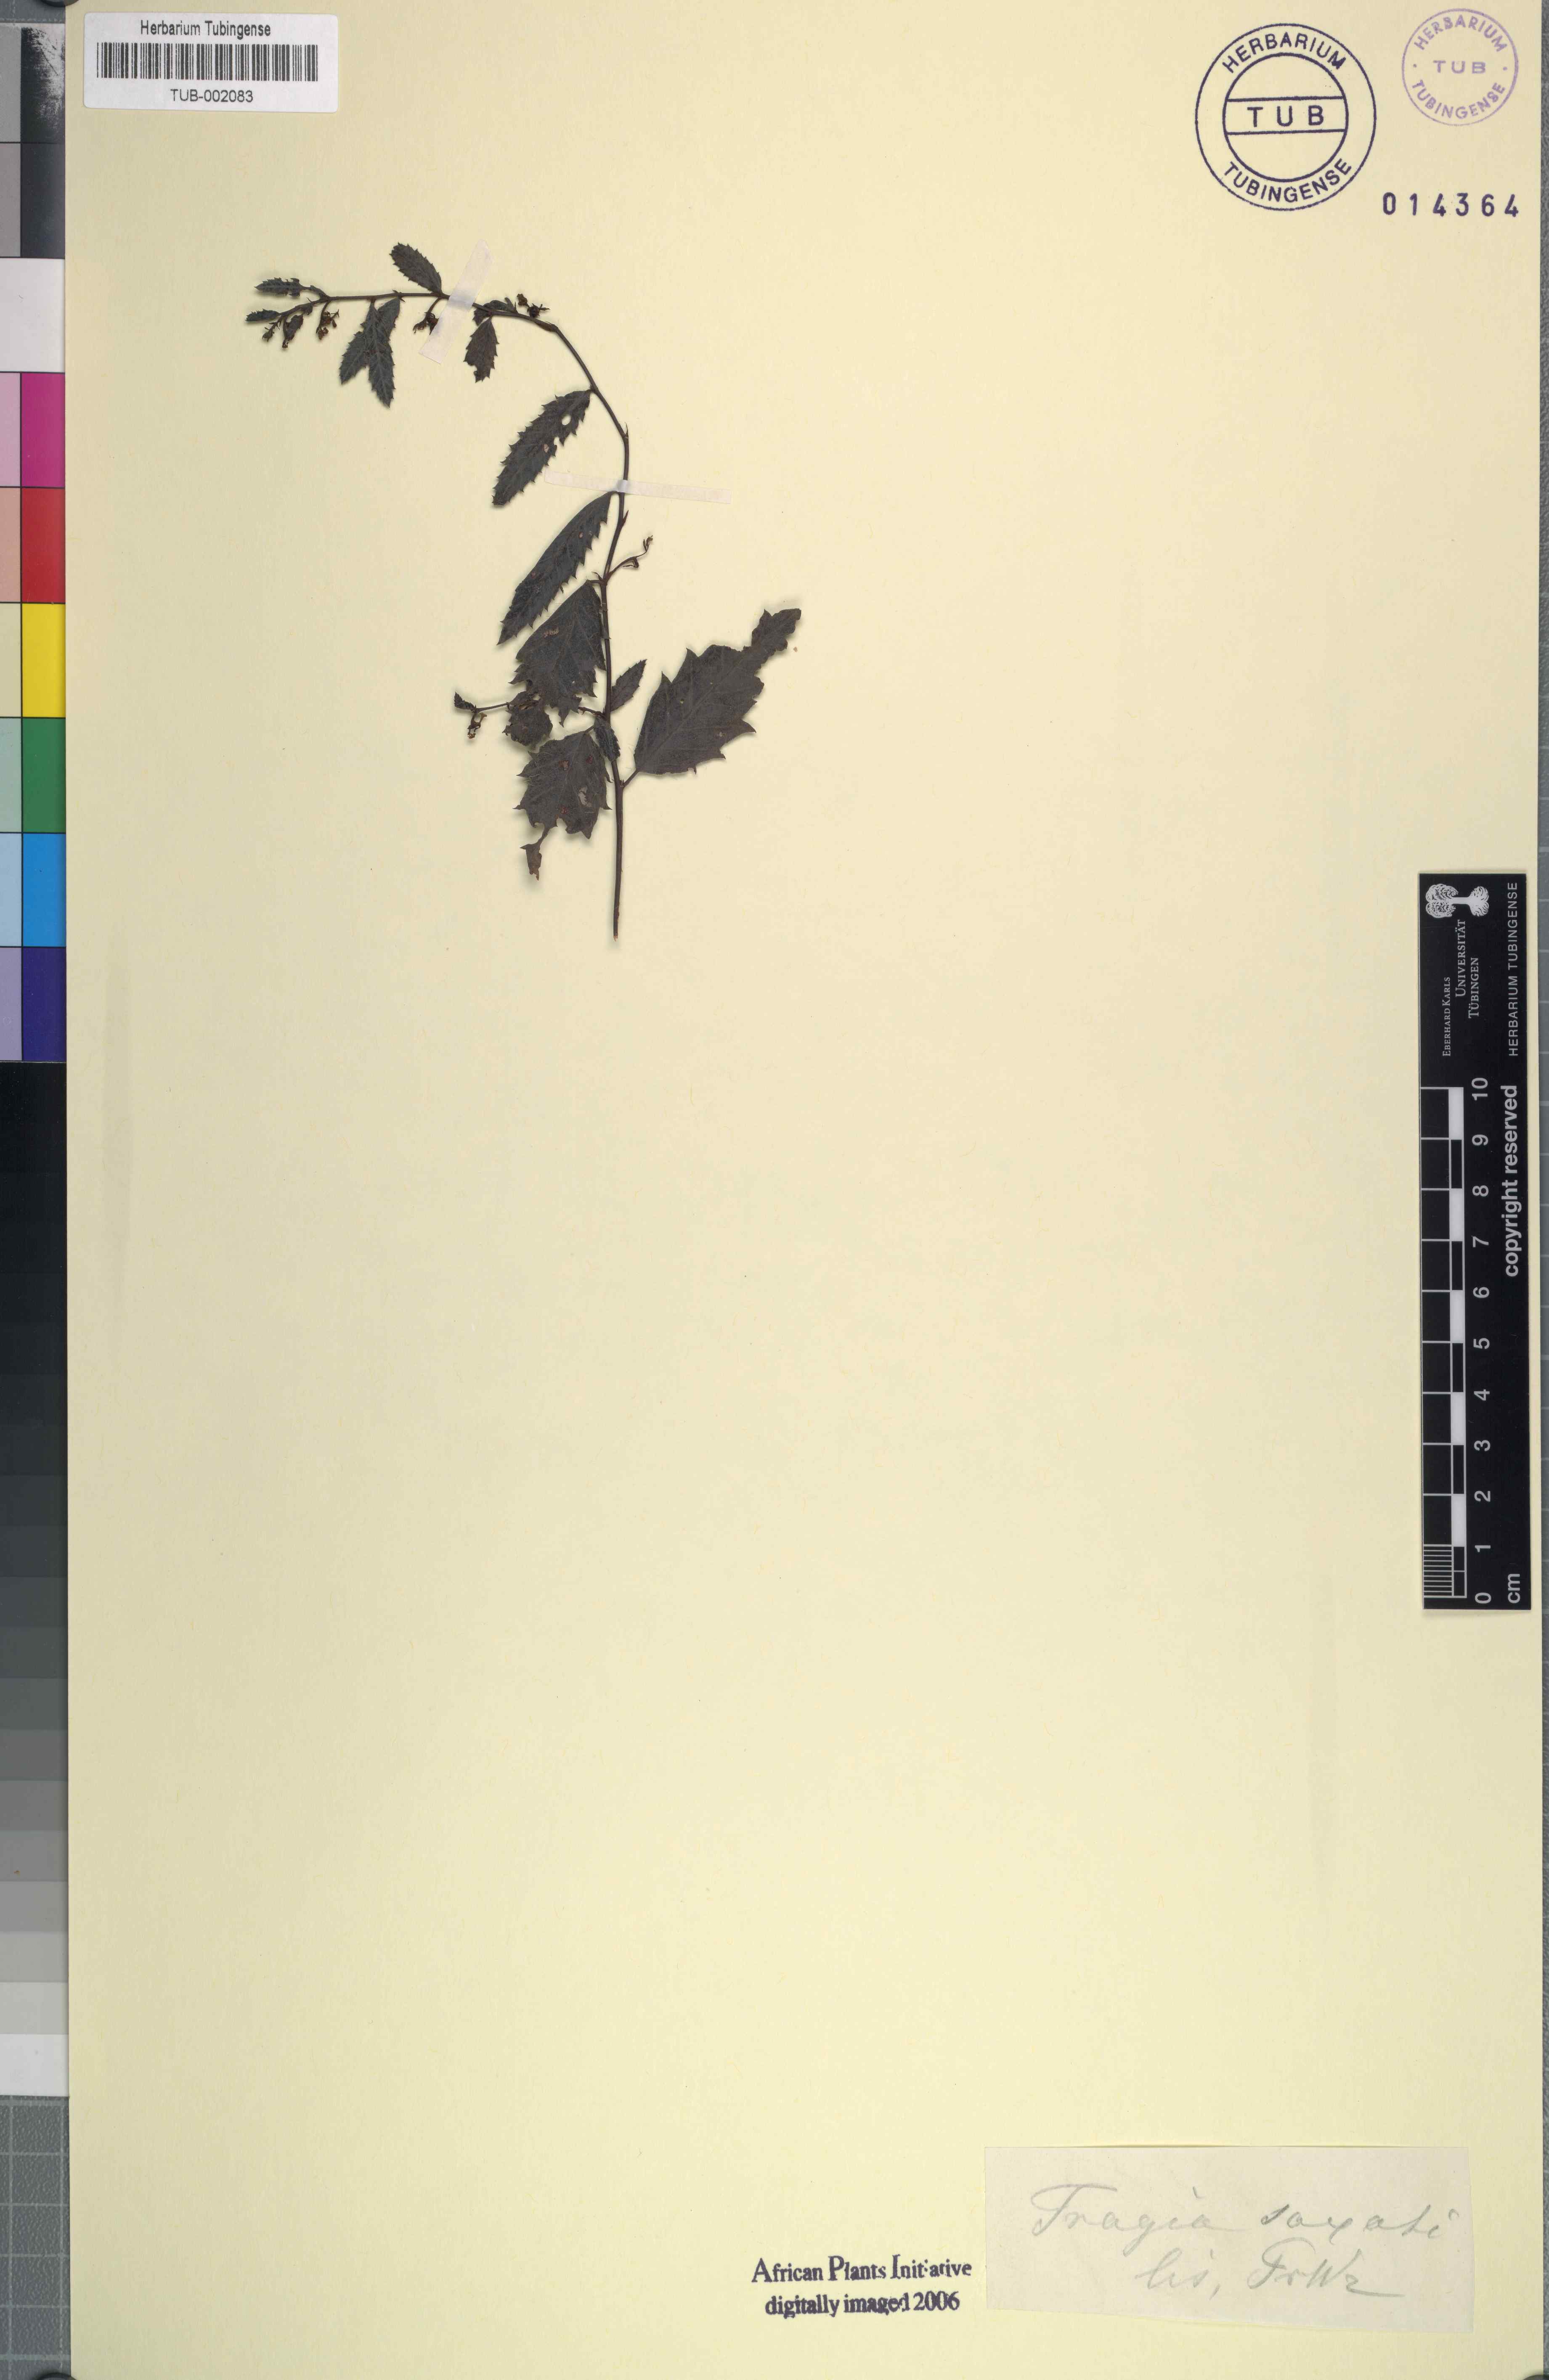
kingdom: Plantae
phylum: Tracheophyta
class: Magnoliopsida
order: Malpighiales
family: Euphorbiaceae
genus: Acalypha
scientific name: Acalypha spachiana
